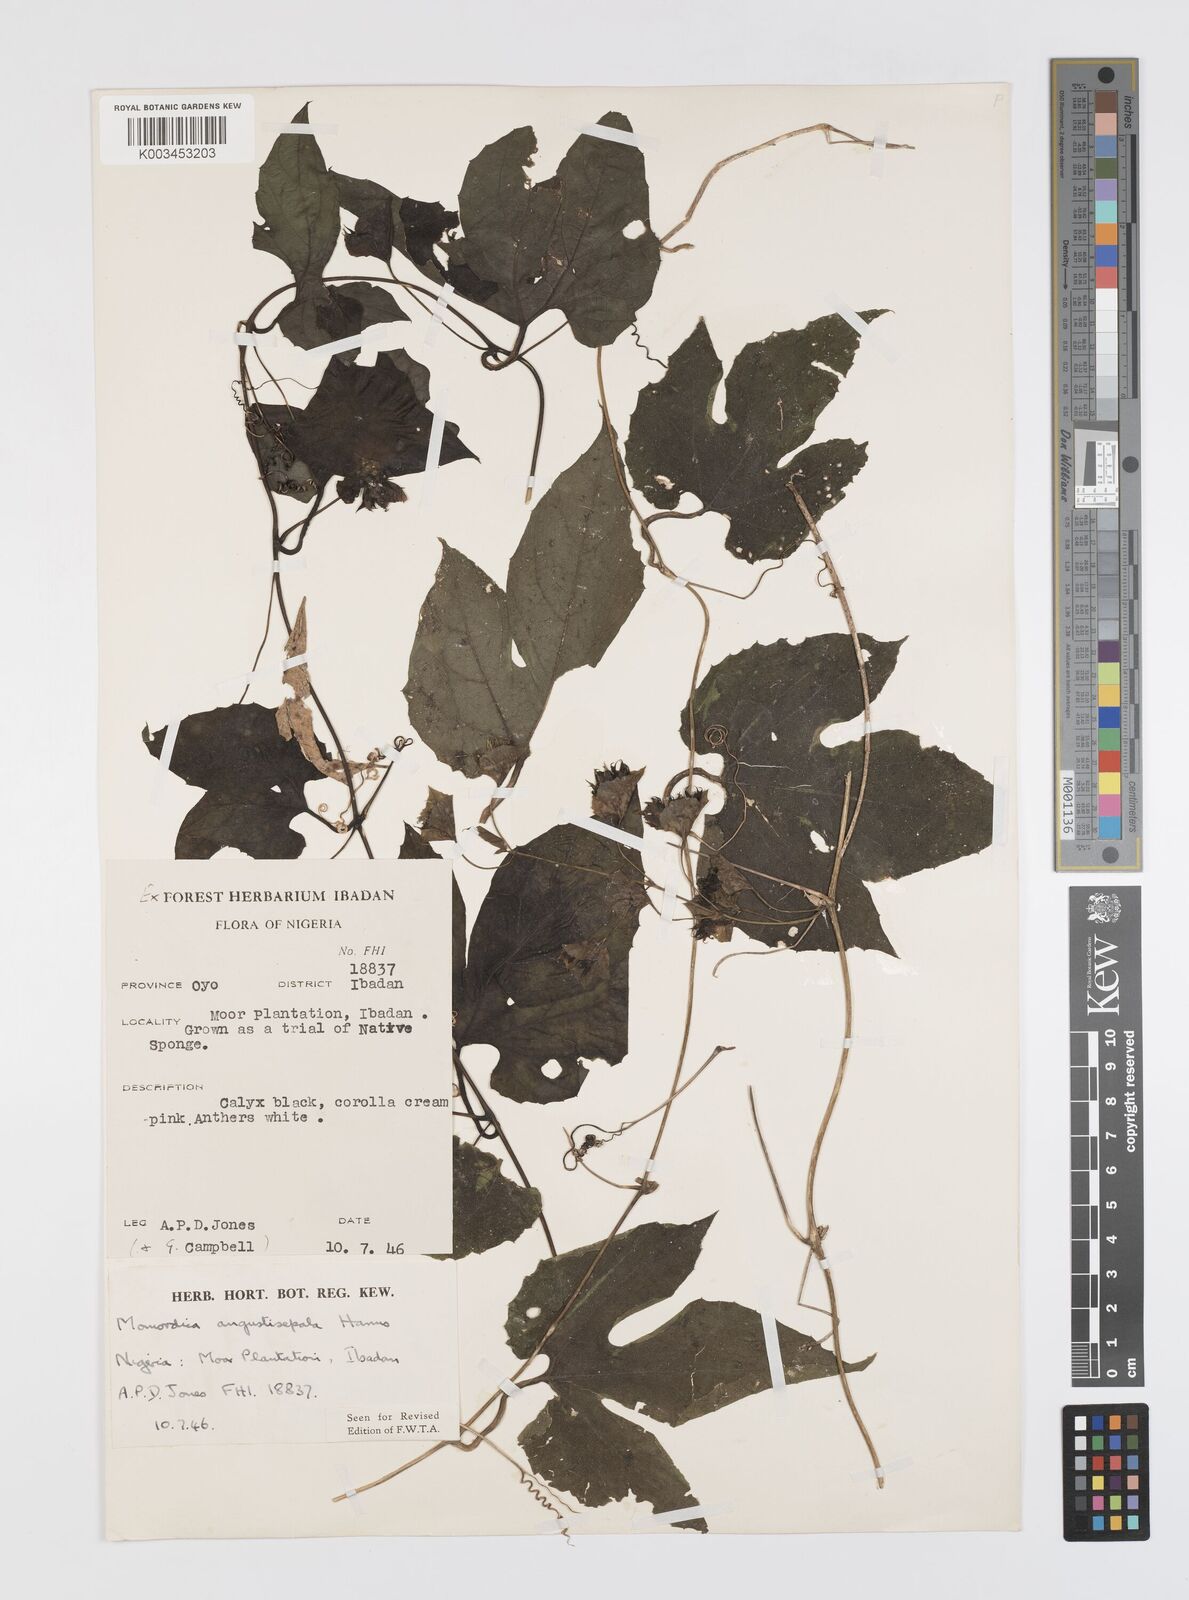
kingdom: Plantae
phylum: Tracheophyta
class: Magnoliopsida
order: Cucurbitales
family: Cucurbitaceae
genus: Momordica
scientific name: Momordica angustisepala
